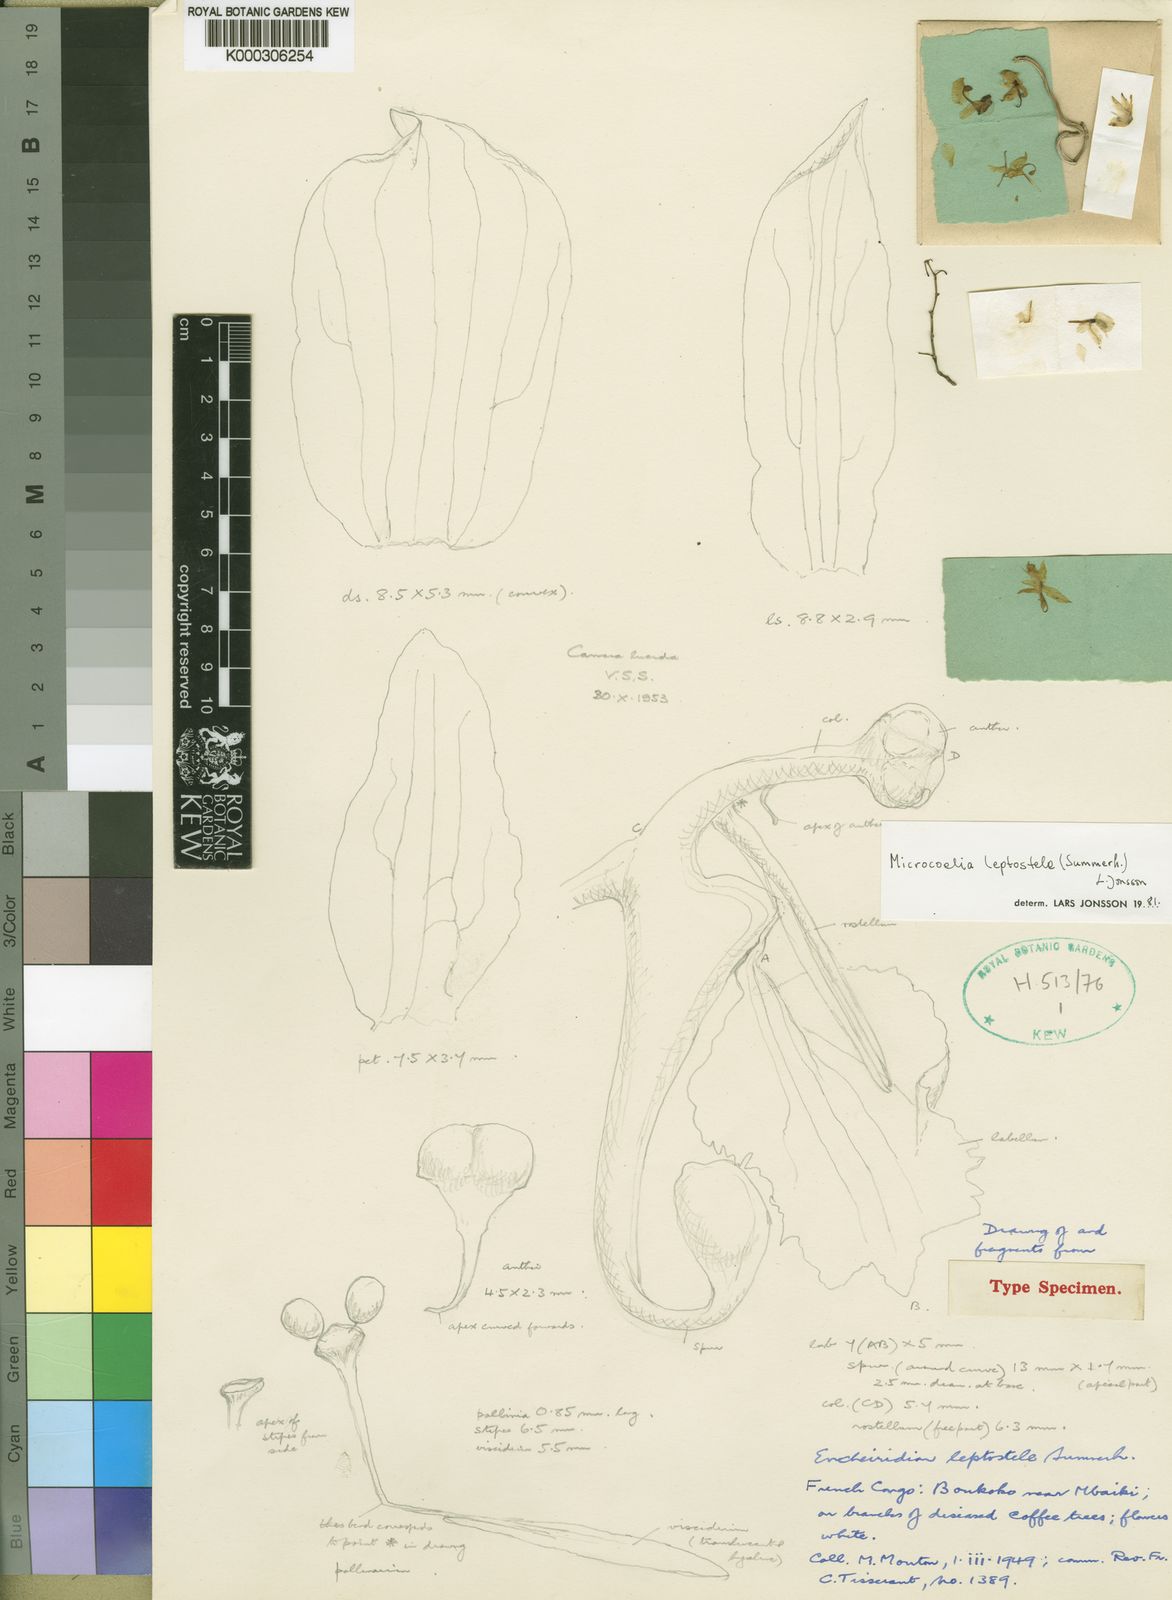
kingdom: Plantae
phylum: Tracheophyta
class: Liliopsida
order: Asparagales
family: Orchidaceae
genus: Microcoelia
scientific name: Microcoelia leptostele
